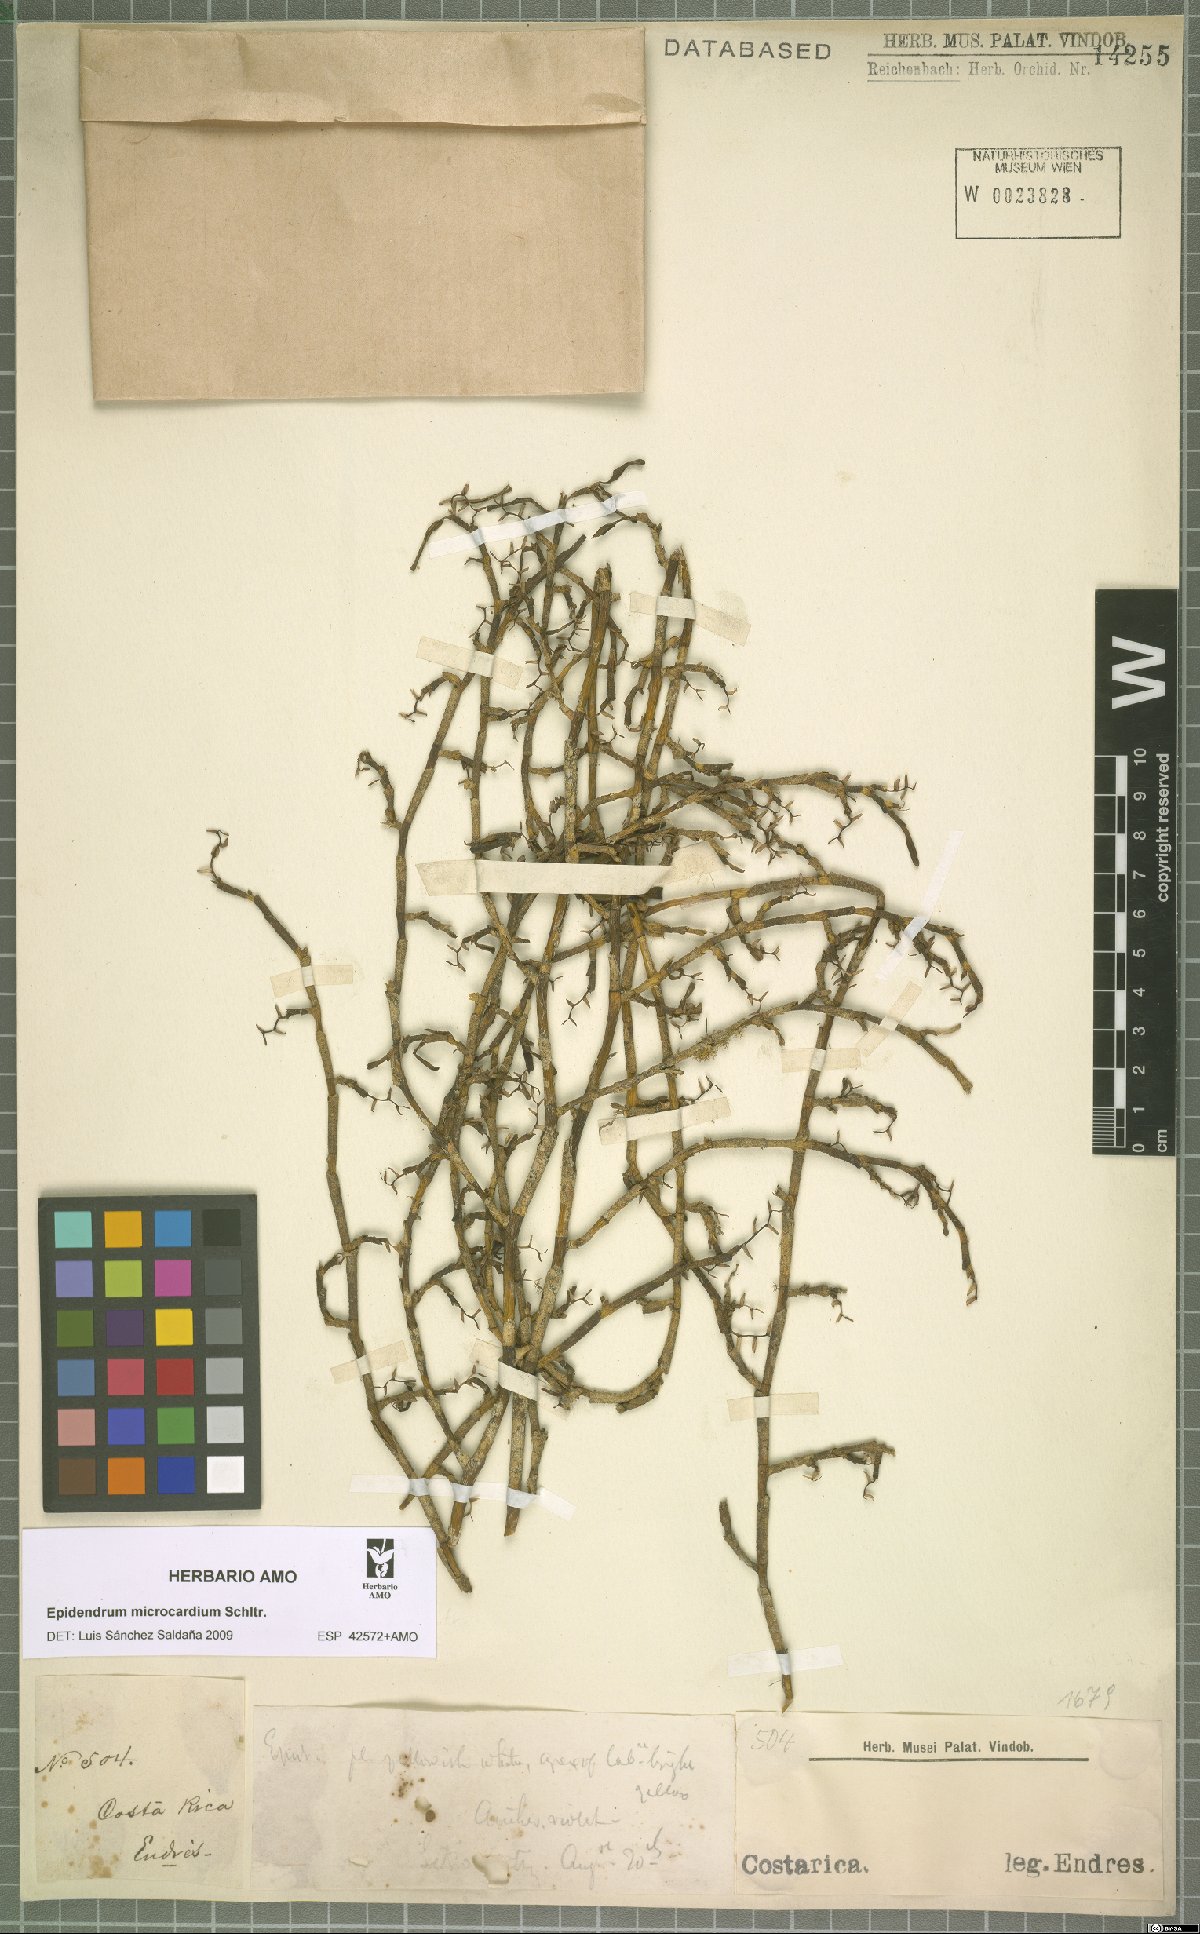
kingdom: Plantae
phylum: Tracheophyta
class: Liliopsida
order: Asparagales
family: Orchidaceae
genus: Epidendrum
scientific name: Epidendrum microcardium
